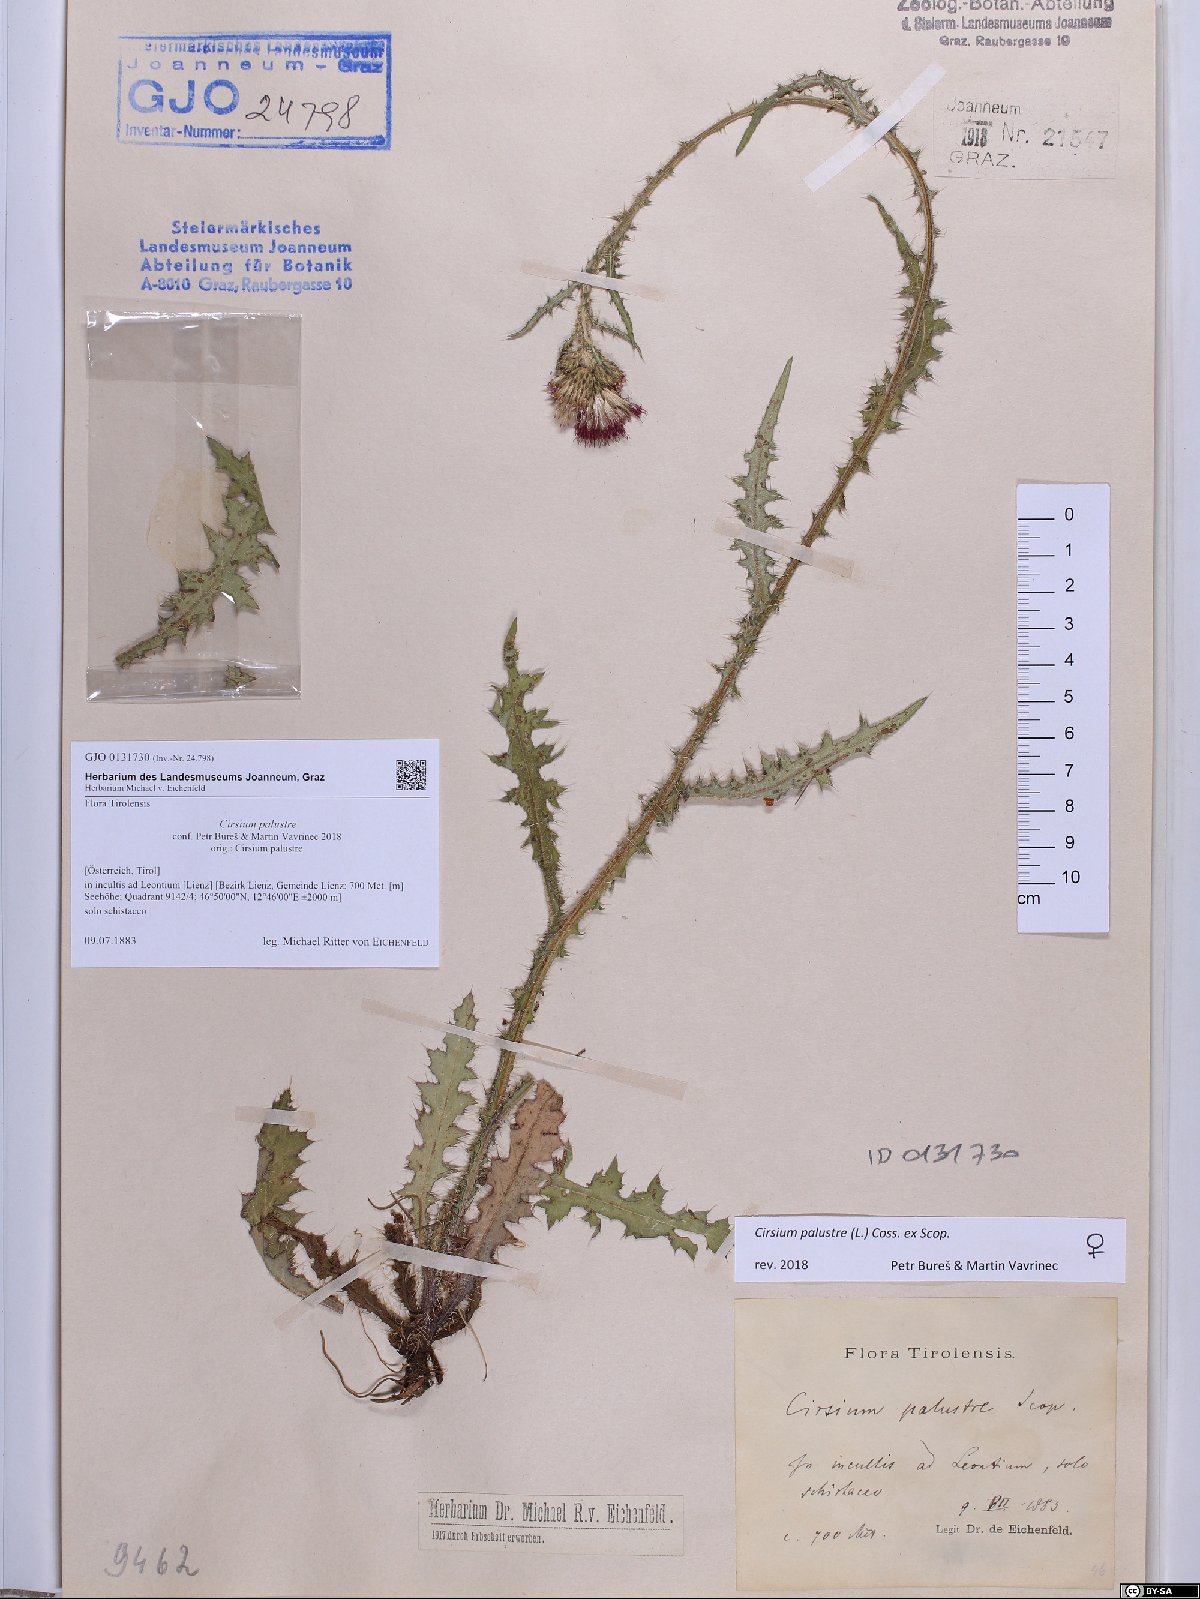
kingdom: Plantae
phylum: Tracheophyta
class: Magnoliopsida
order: Asterales
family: Asteraceae
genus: Cirsium
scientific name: Cirsium palustre
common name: Marsh thistle
